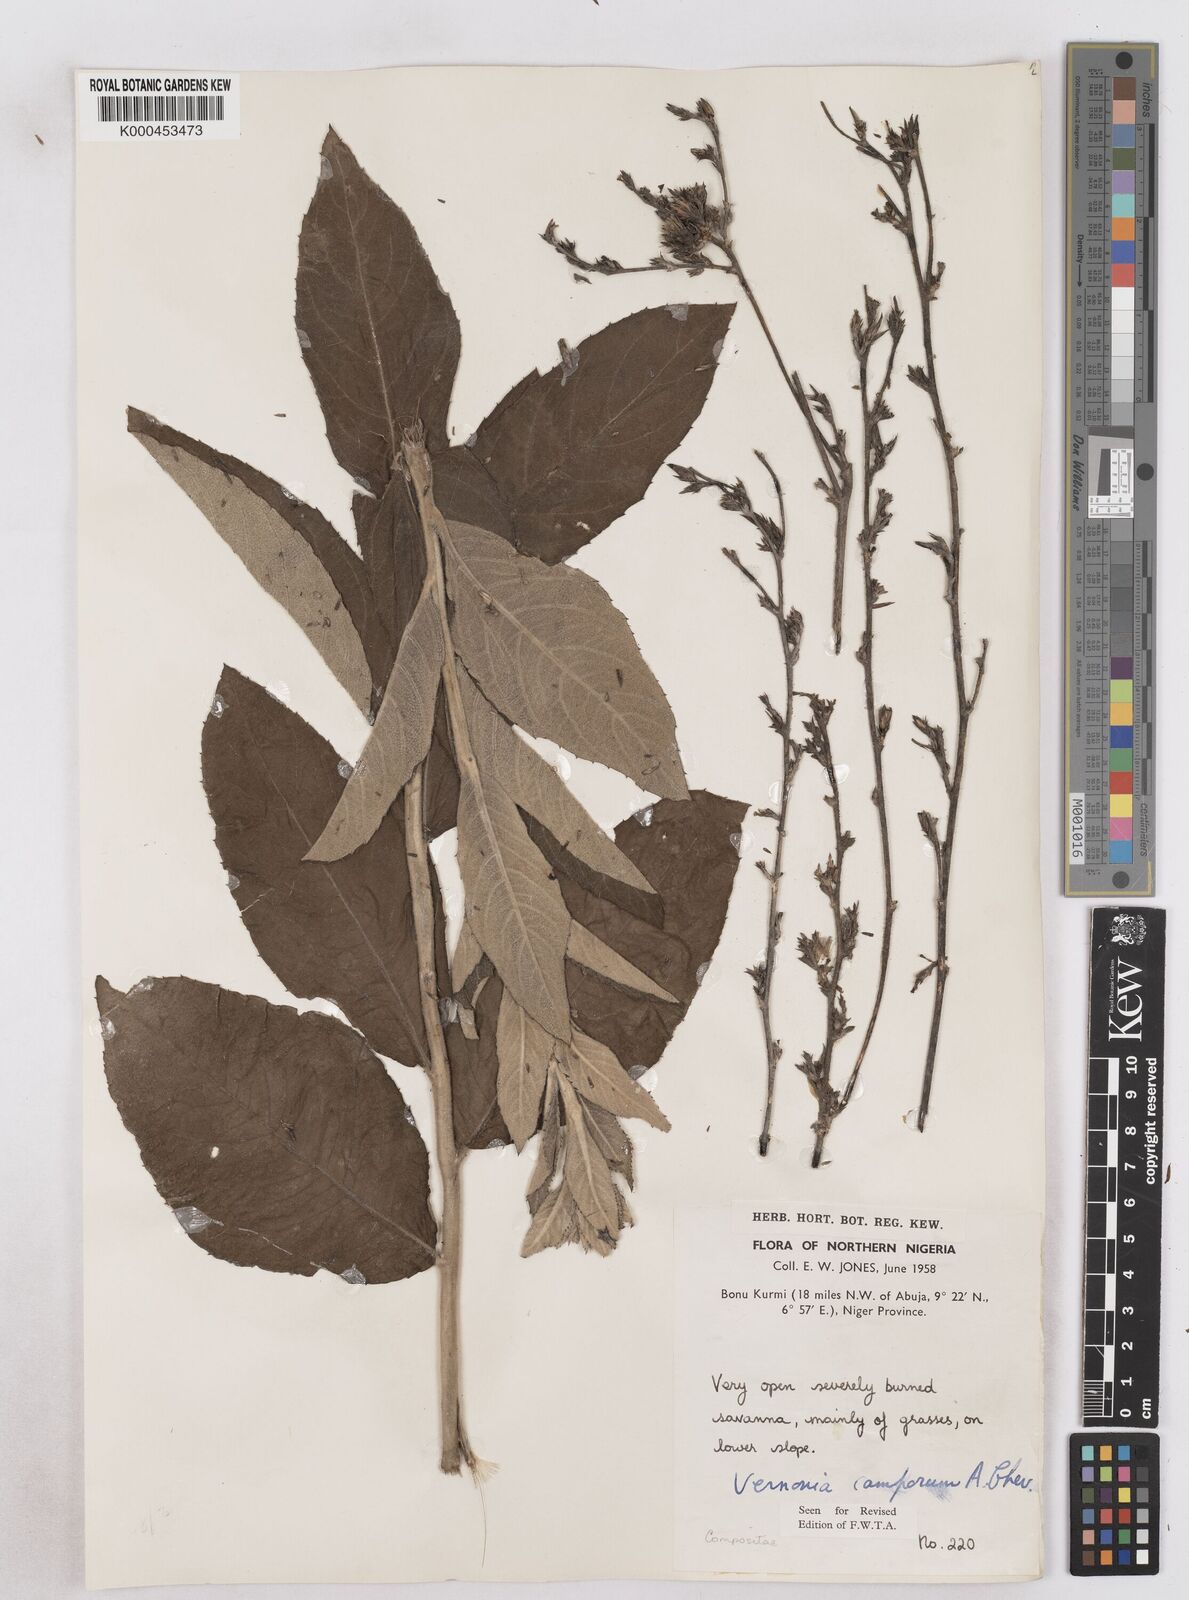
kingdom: Plantae
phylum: Tracheophyta
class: Magnoliopsida
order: Asterales
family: Asteraceae
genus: Vernoniastrum
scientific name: Vernoniastrum camporum
